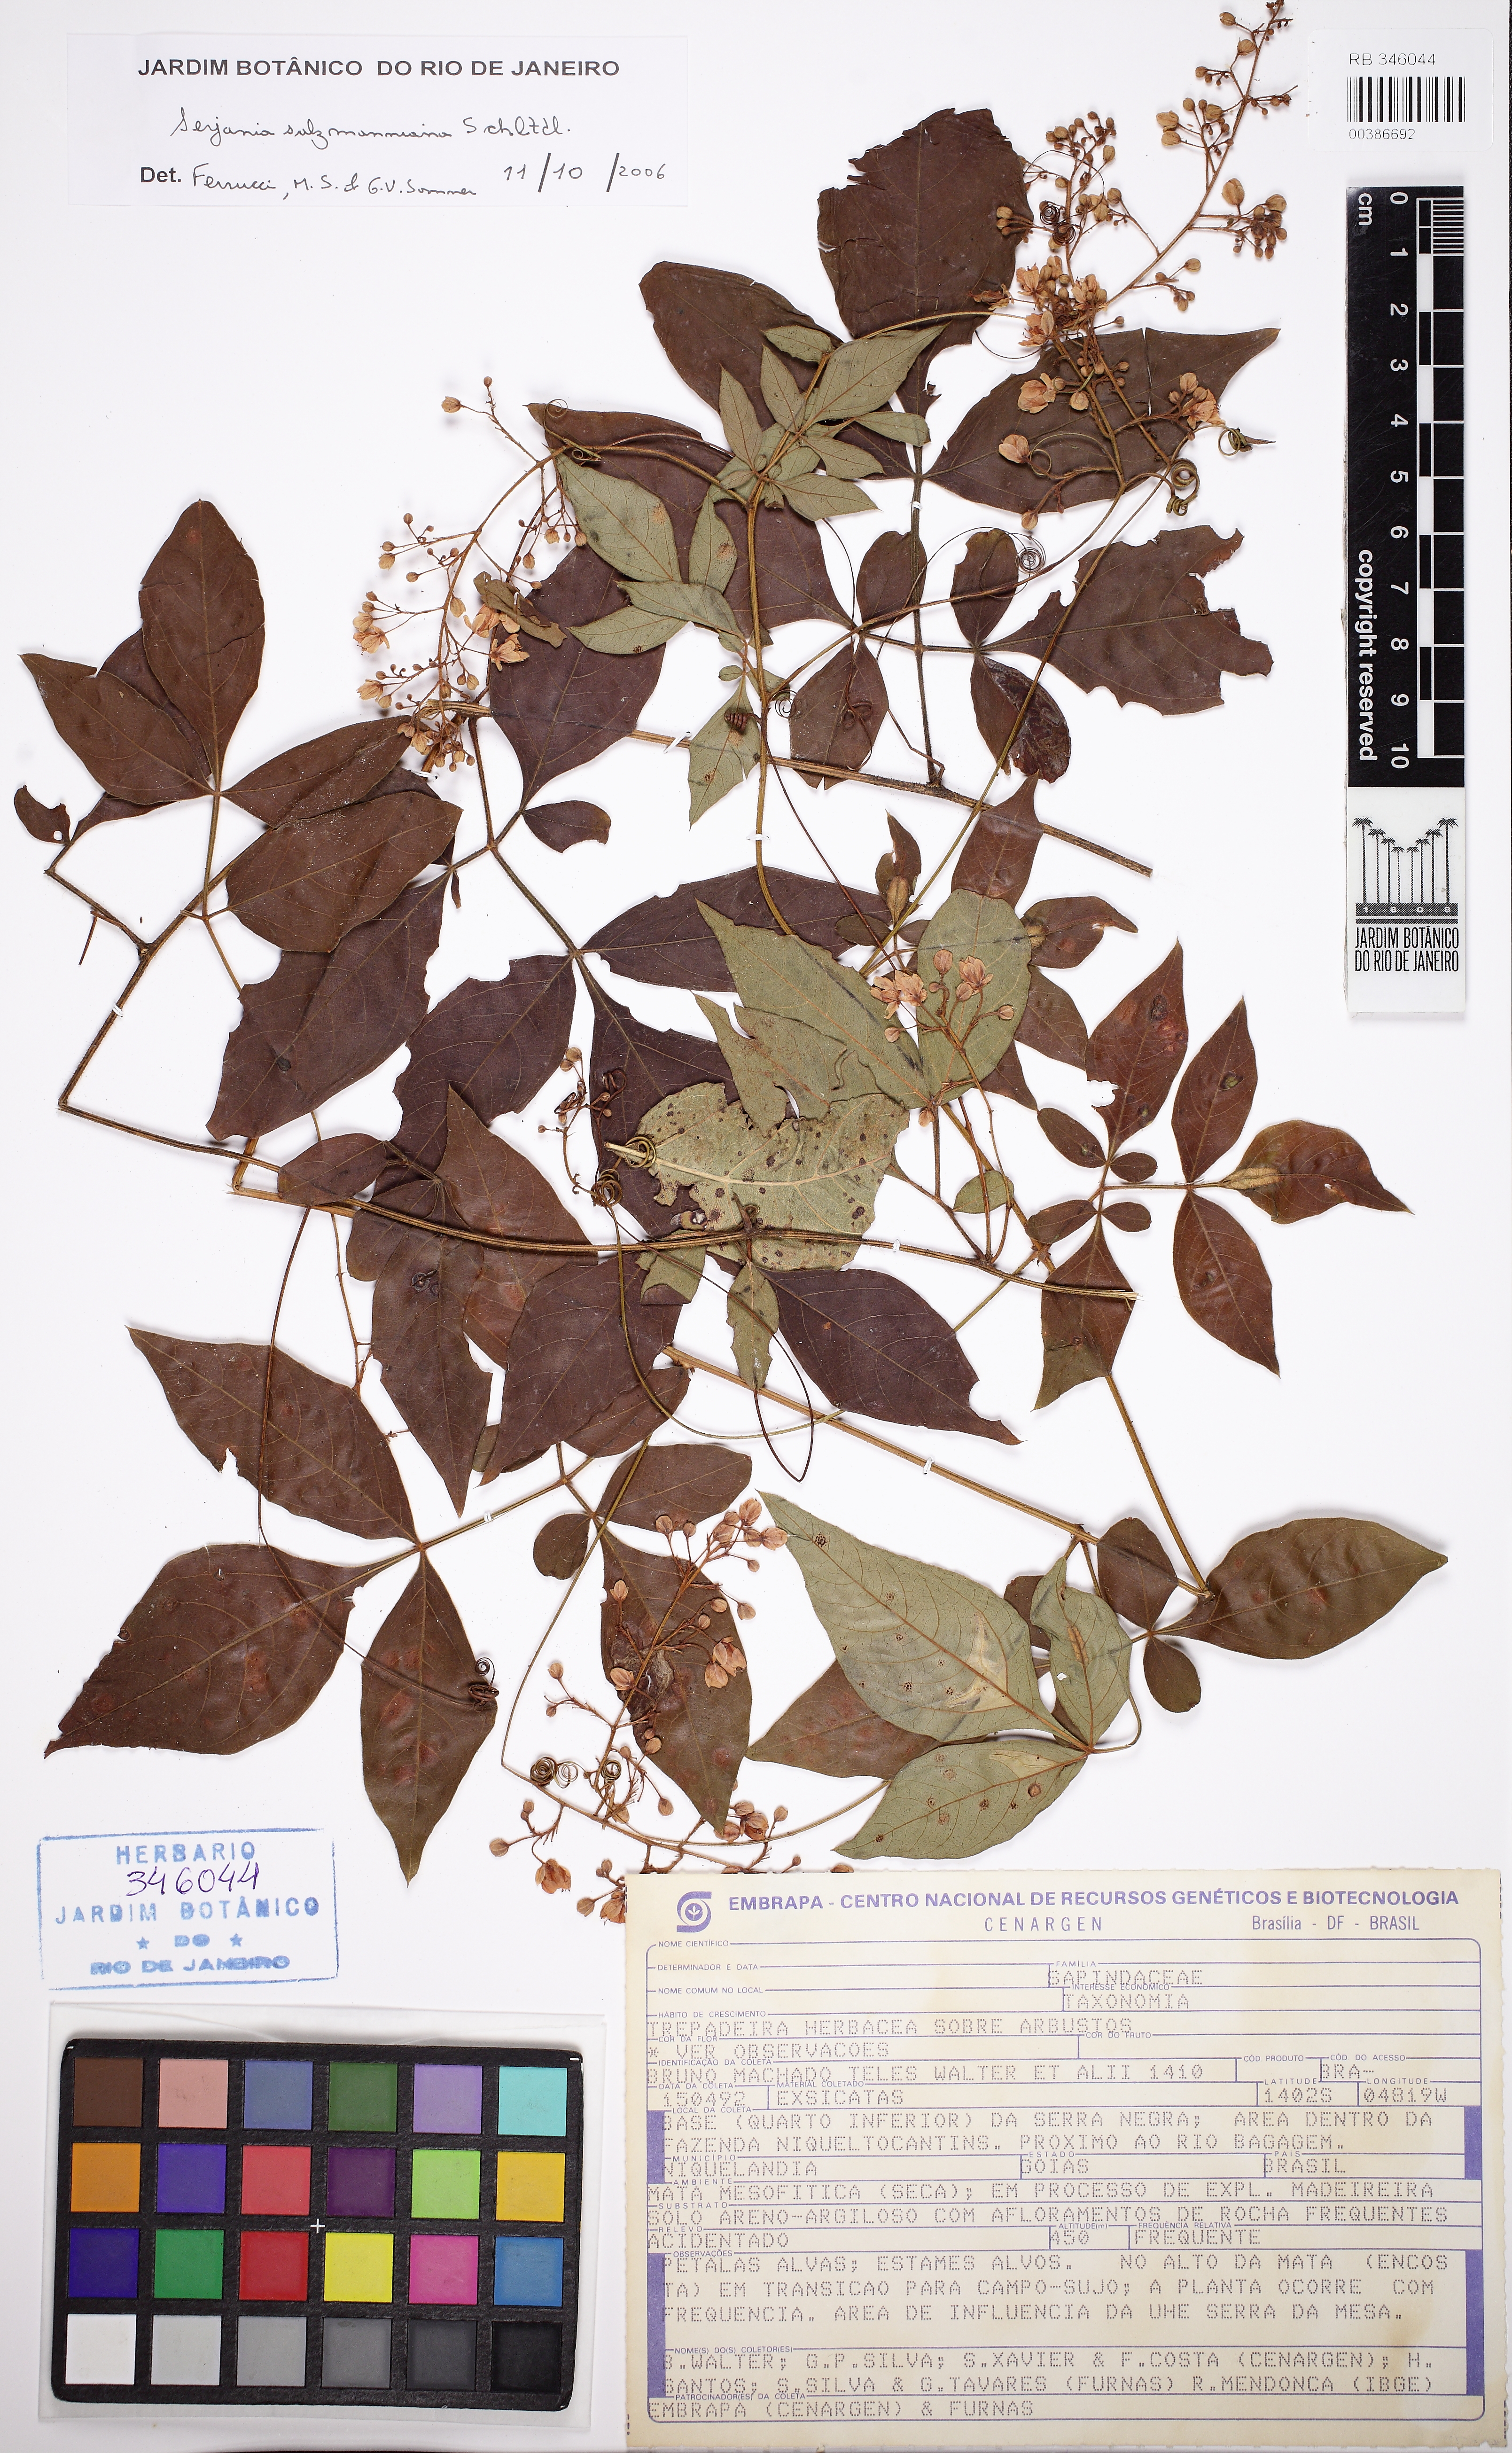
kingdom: Plantae
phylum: Tracheophyta
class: Magnoliopsida
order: Sapindales
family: Sapindaceae
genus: Serjania
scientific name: Serjania salzmanniana
